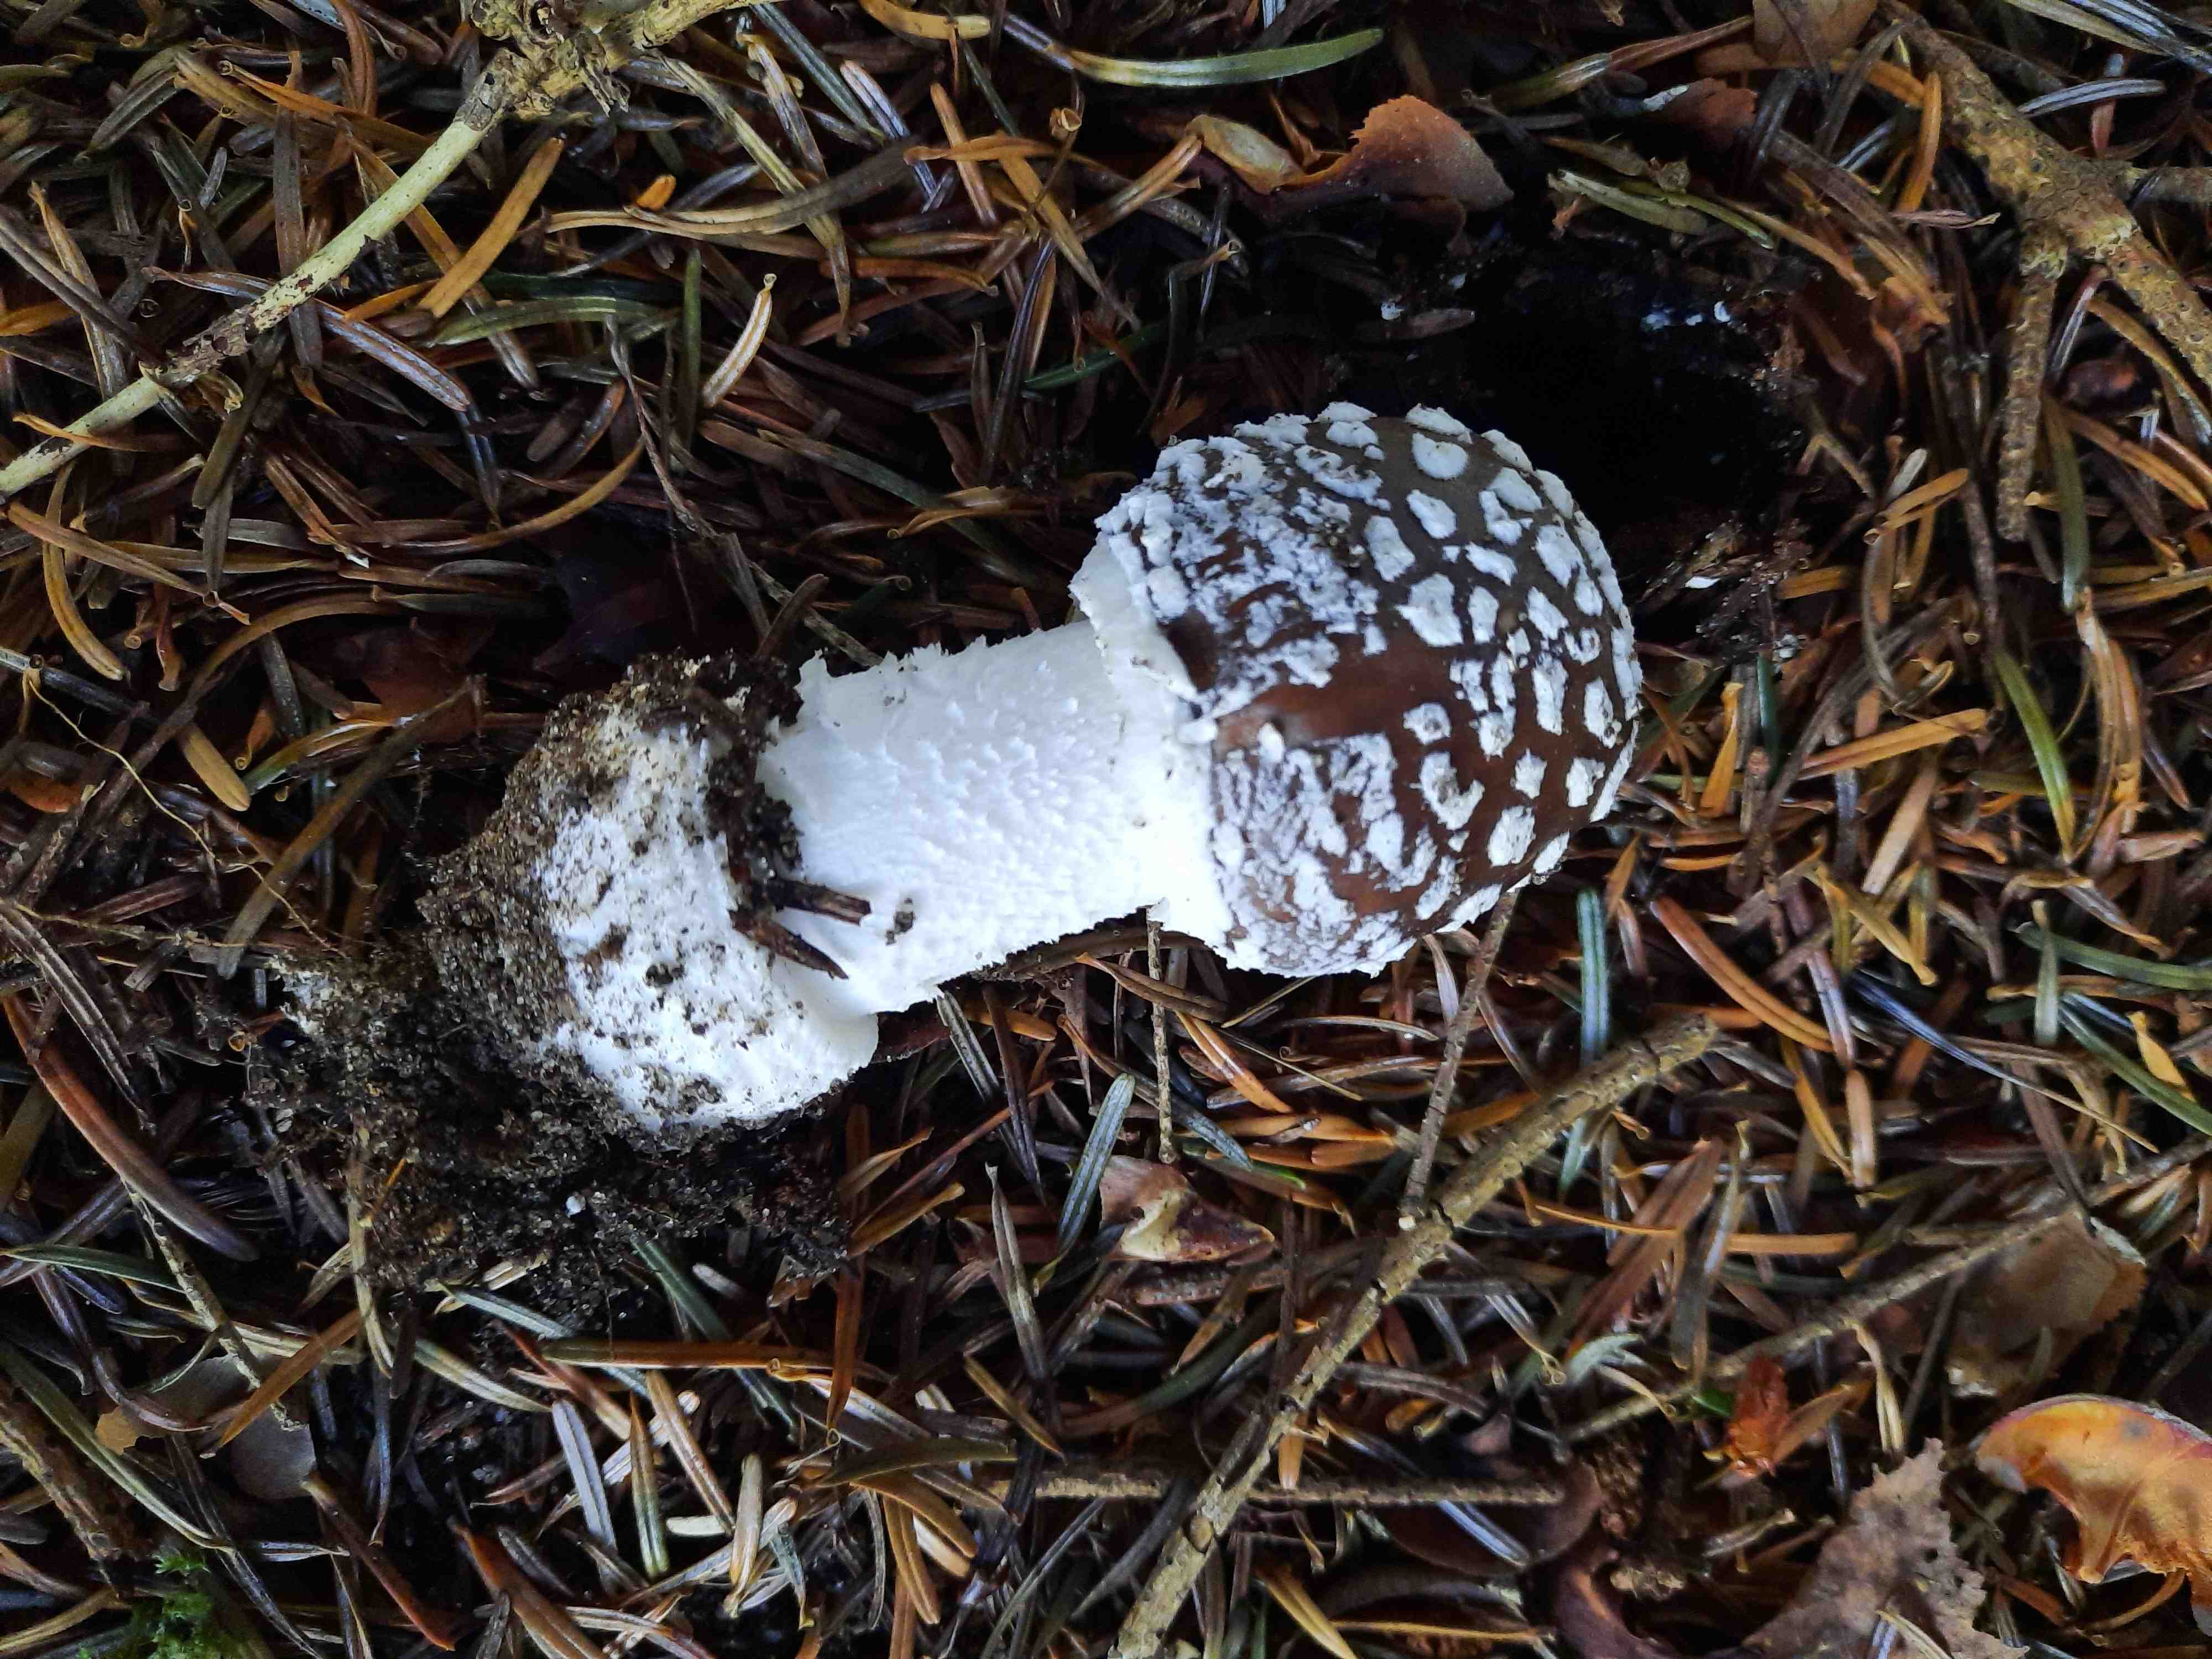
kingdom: Fungi
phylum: Basidiomycota
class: Agaricomycetes
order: Agaricales
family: Amanitaceae
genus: Amanita
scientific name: Amanita pantherina
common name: panter-fluesvamp
